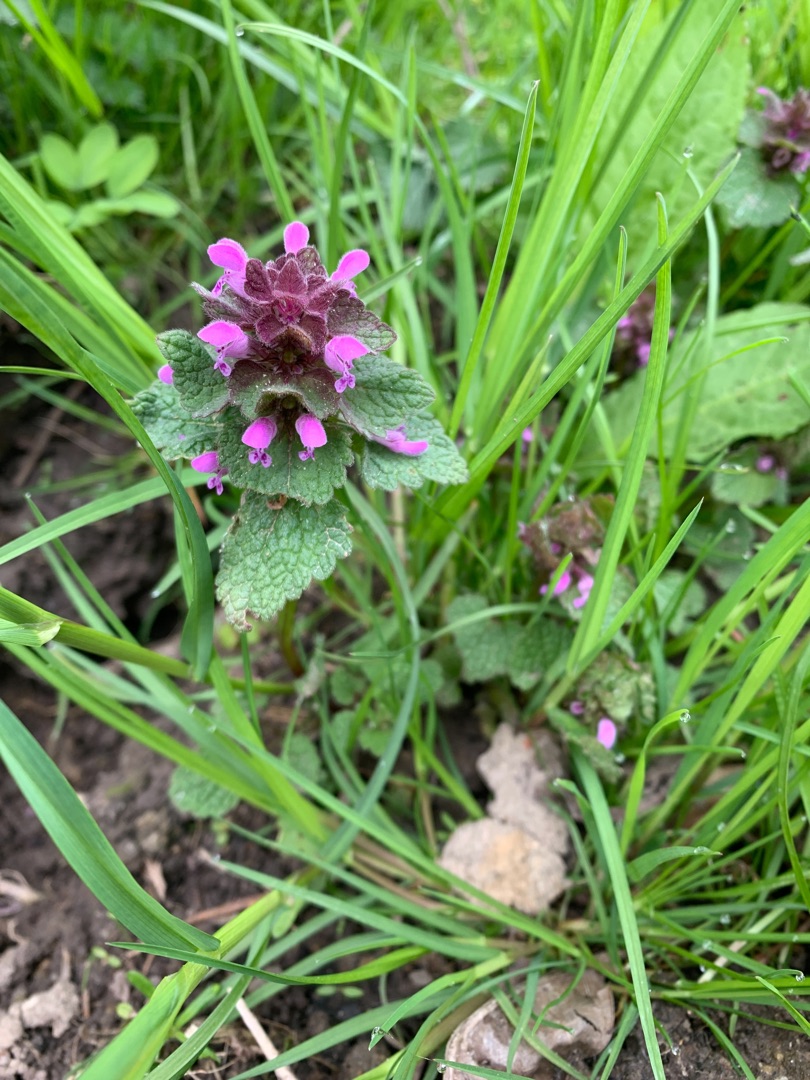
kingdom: Plantae
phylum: Tracheophyta
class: Magnoliopsida
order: Lamiales
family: Lamiaceae
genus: Lamium
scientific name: Lamium purpureum
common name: Rød tvetand
